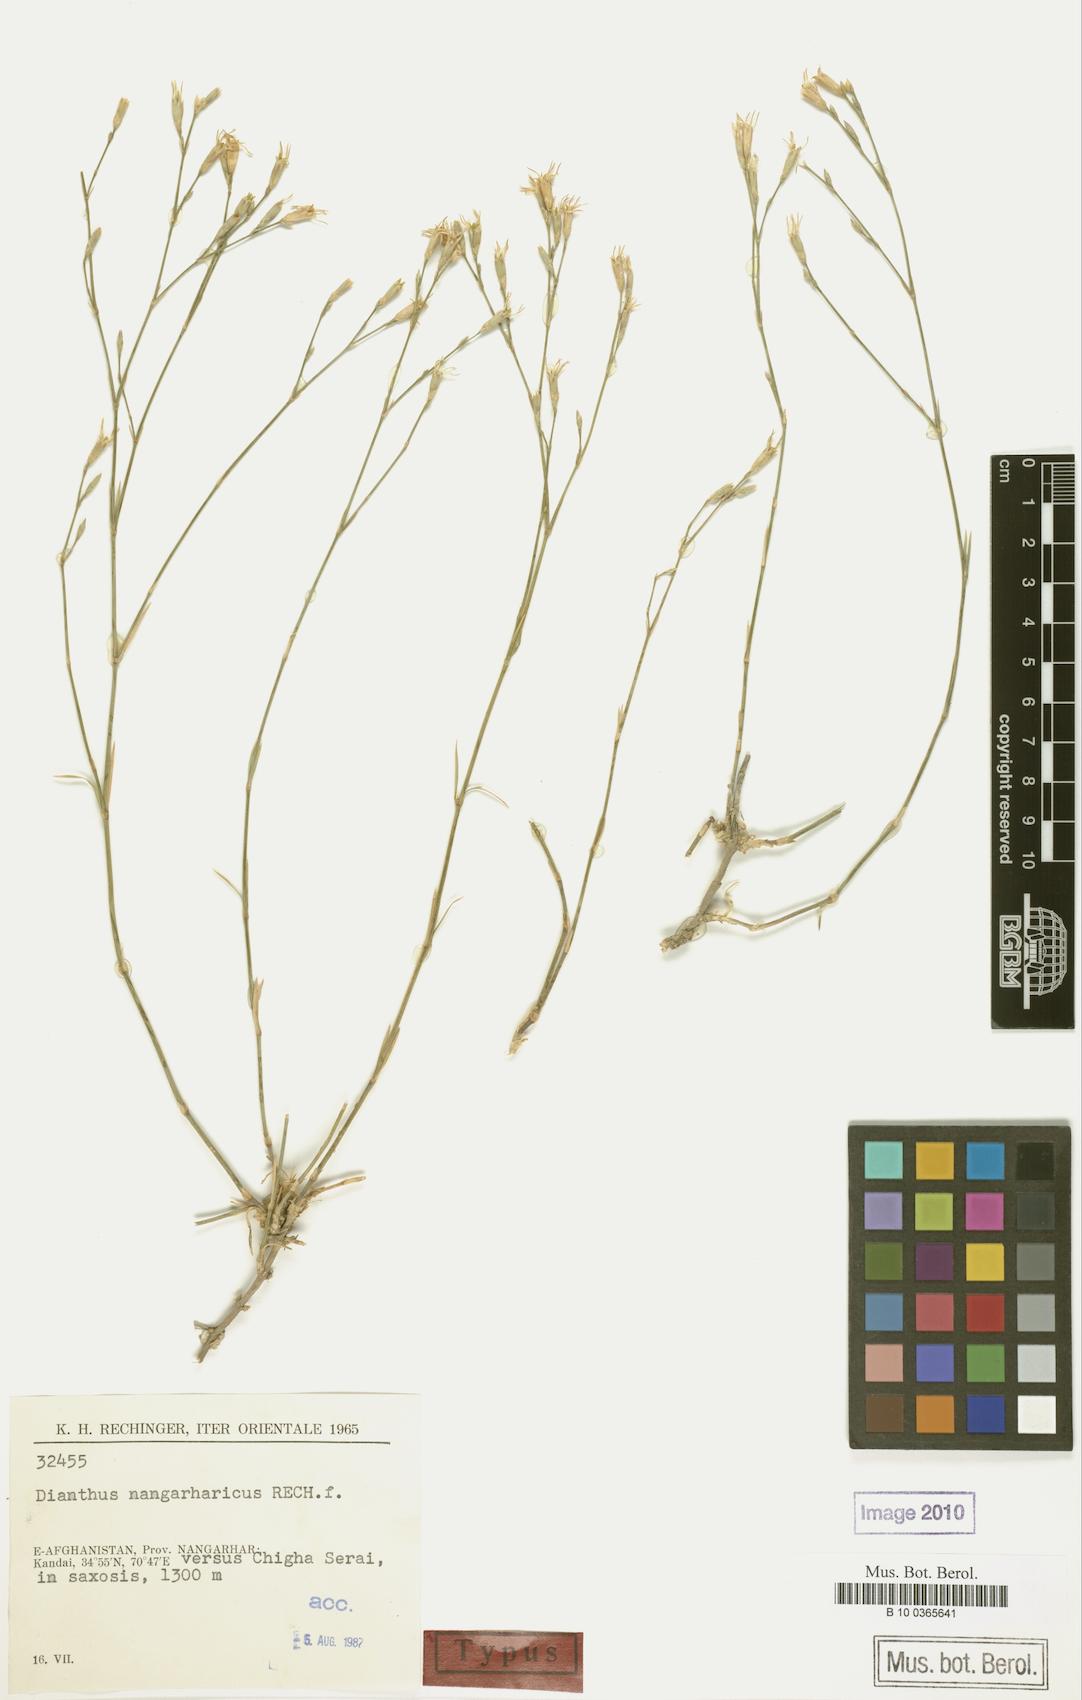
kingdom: Plantae
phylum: Tracheophyta
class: Magnoliopsida
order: Caryophyllales
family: Caryophyllaceae
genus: Dianthus
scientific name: Dianthus nangarharicus
